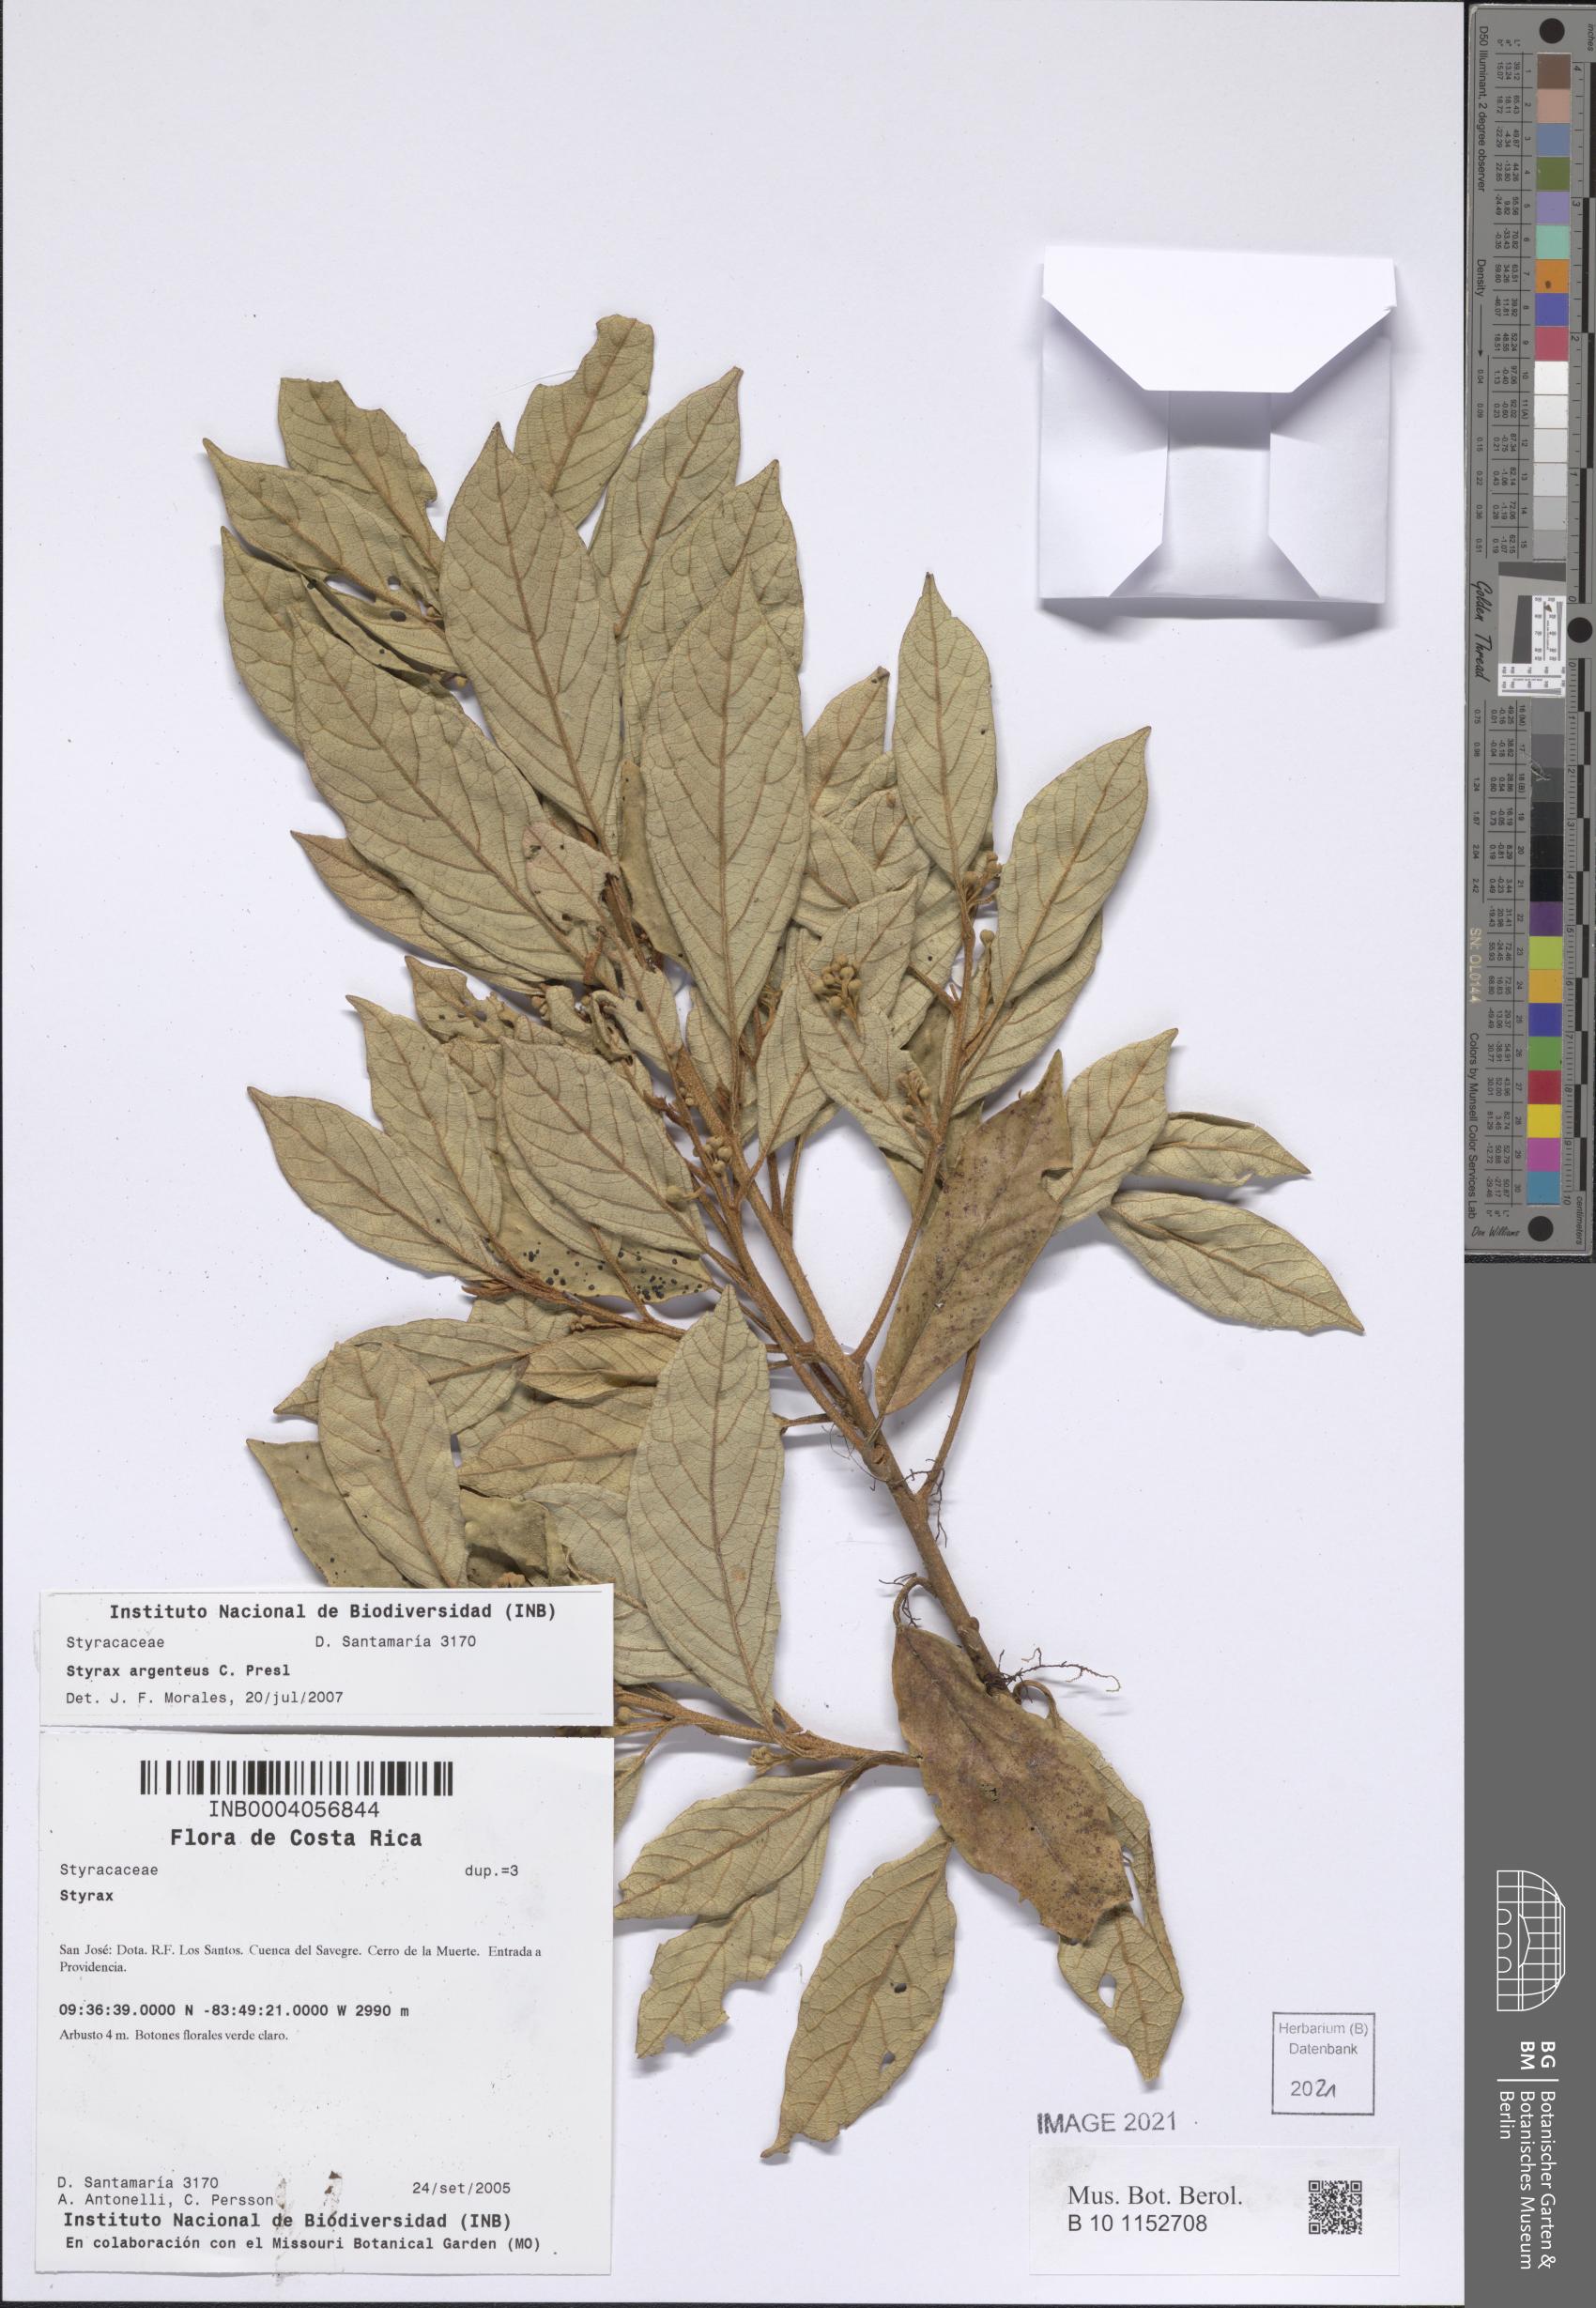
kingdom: Plantae
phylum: Tracheophyta
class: Magnoliopsida
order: Ericales
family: Styracaceae
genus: Styrax
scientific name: Styrax warscewiczii
